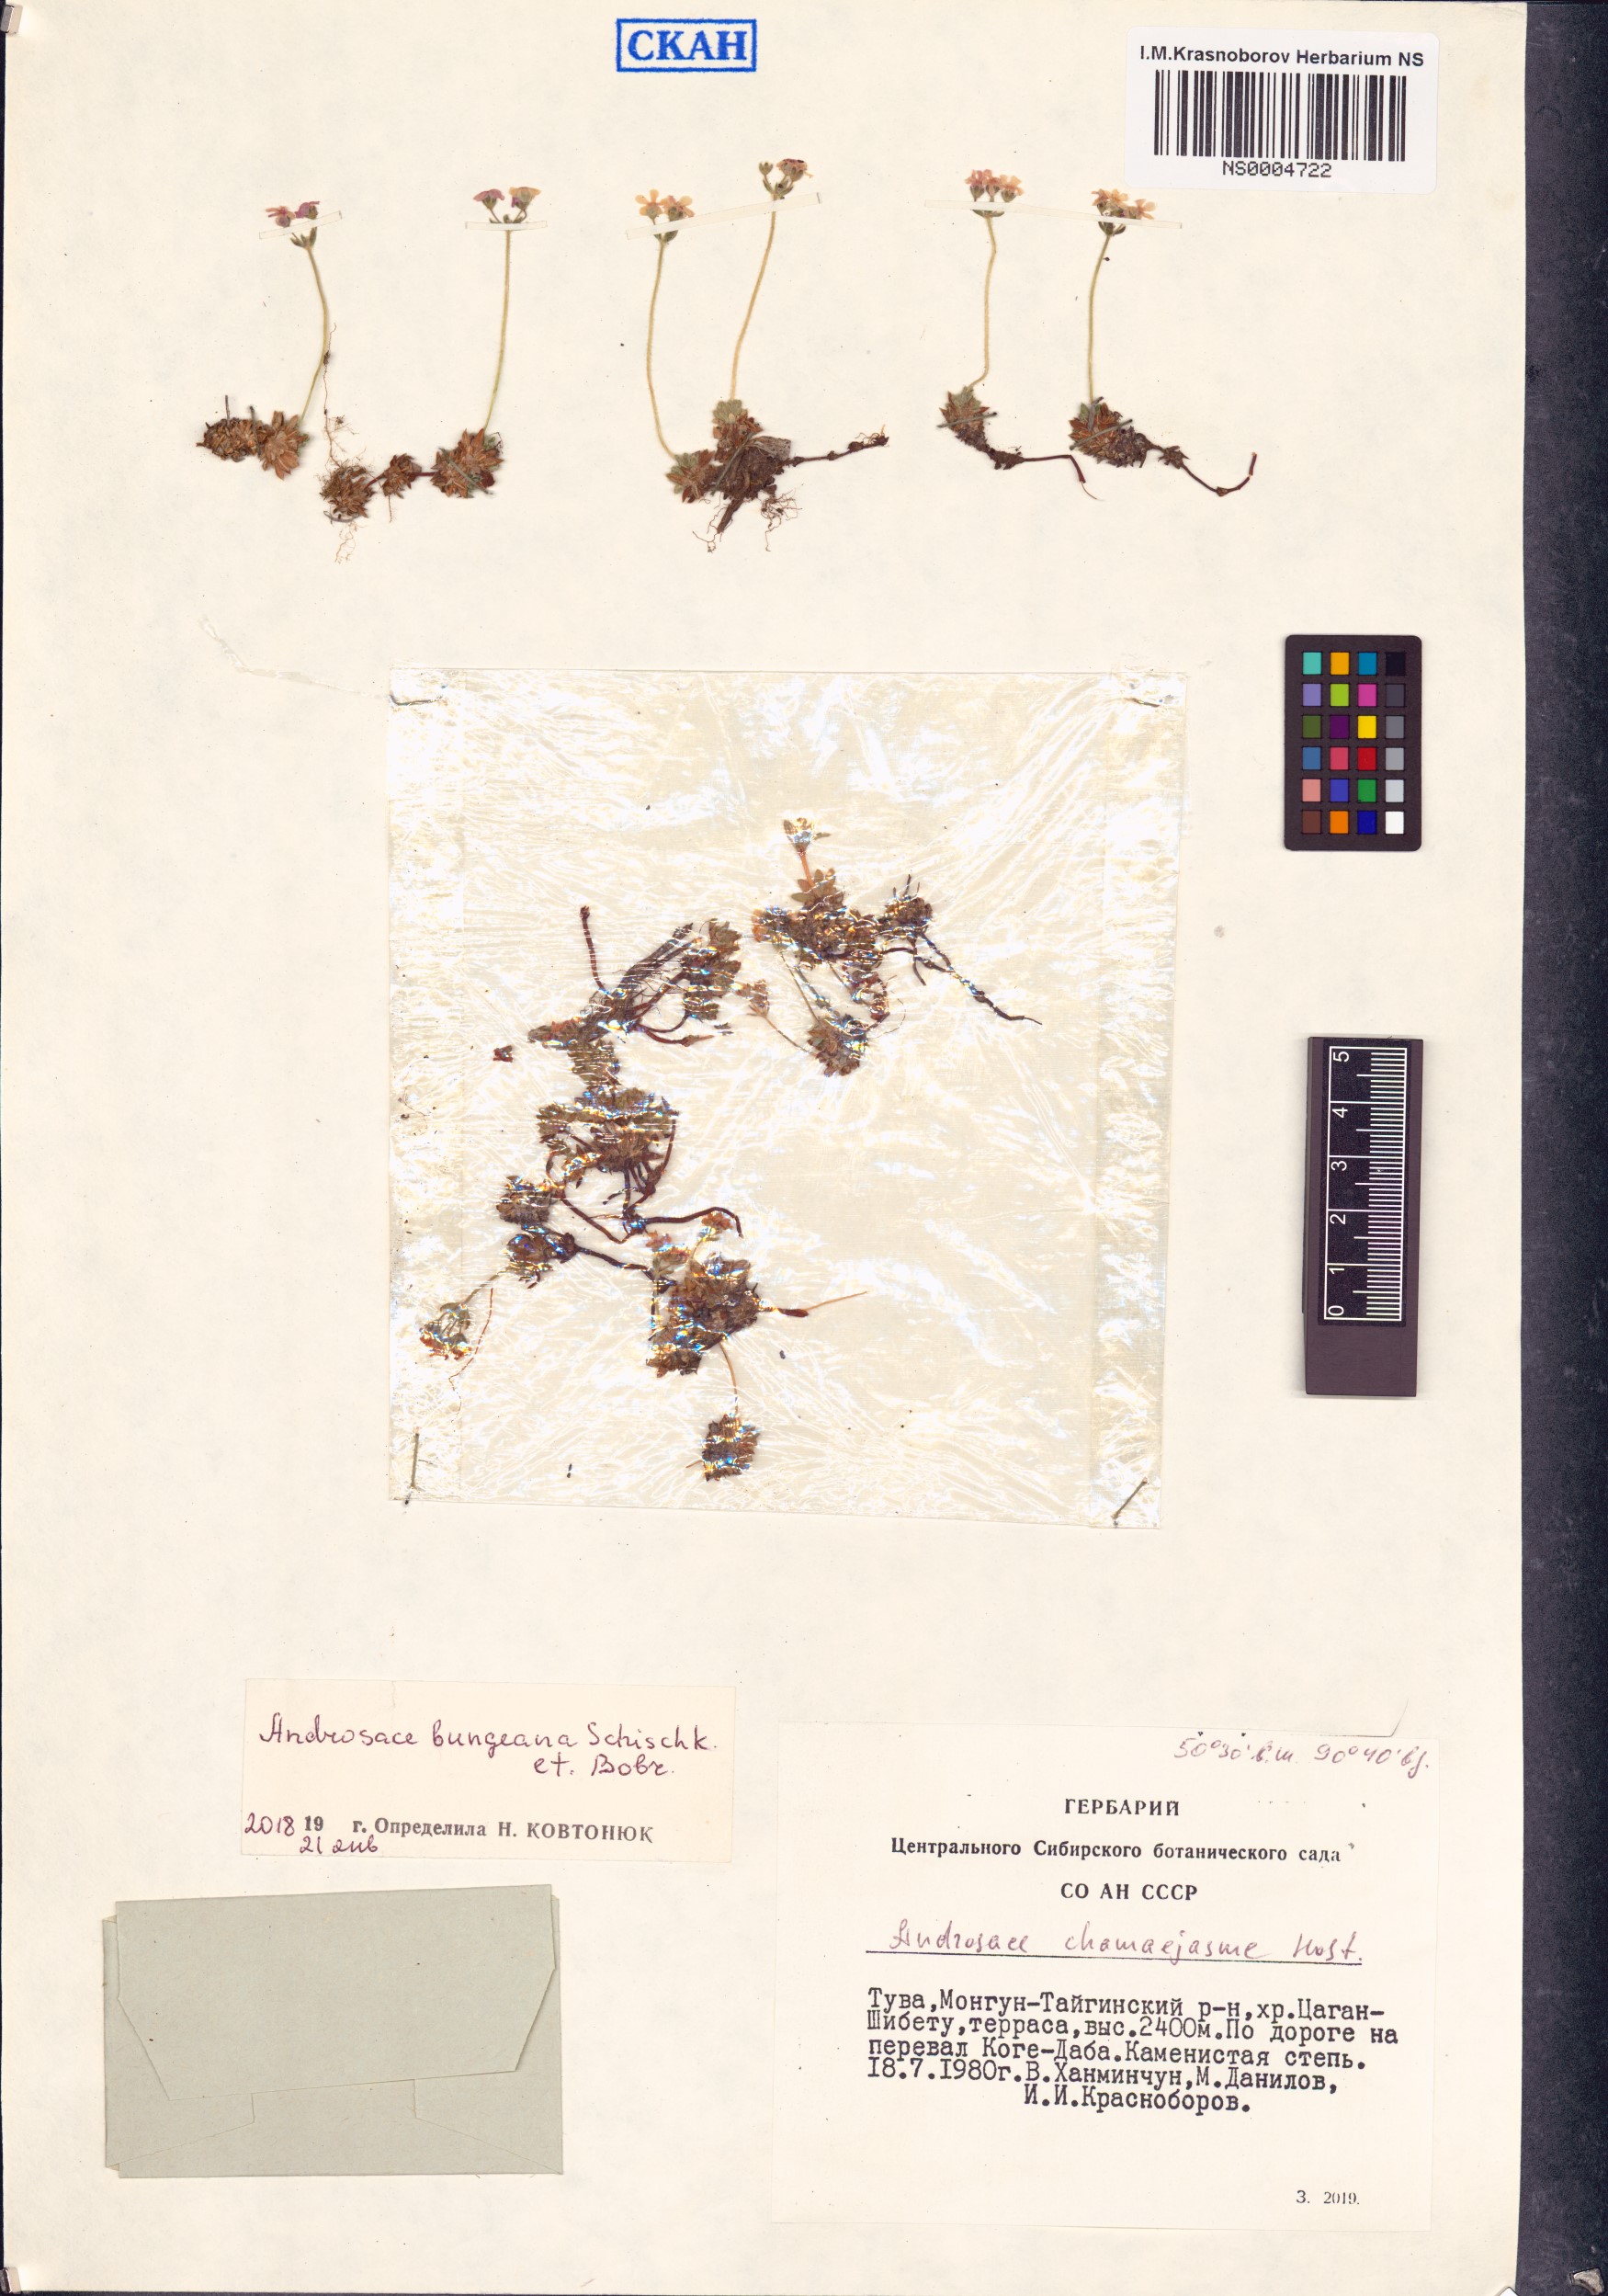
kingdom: Plantae
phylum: Tracheophyta
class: Magnoliopsida
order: Ericales
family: Primulaceae
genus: Androsace
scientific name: Androsace bungeana
